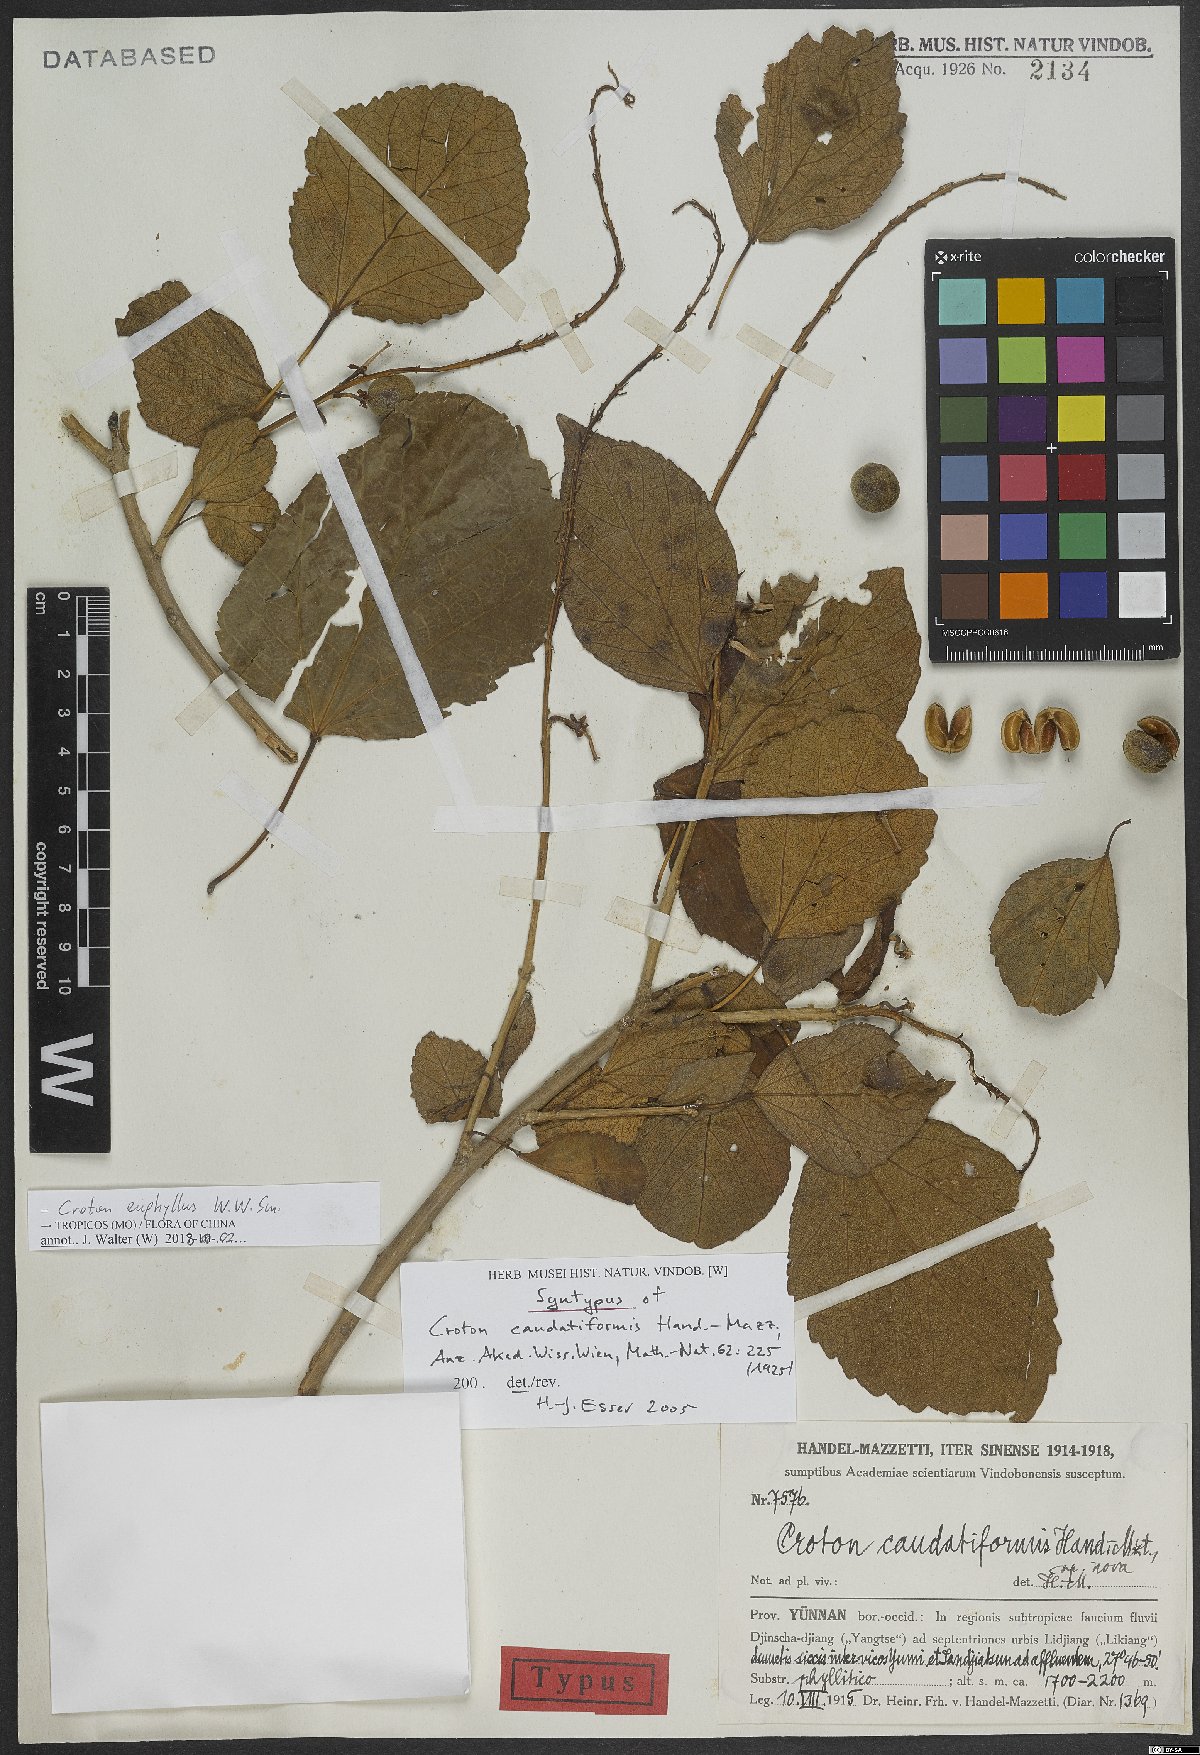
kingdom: Plantae
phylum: Tracheophyta
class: Magnoliopsida
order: Malpighiales
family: Euphorbiaceae
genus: Croton
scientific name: Croton euryphyllus
